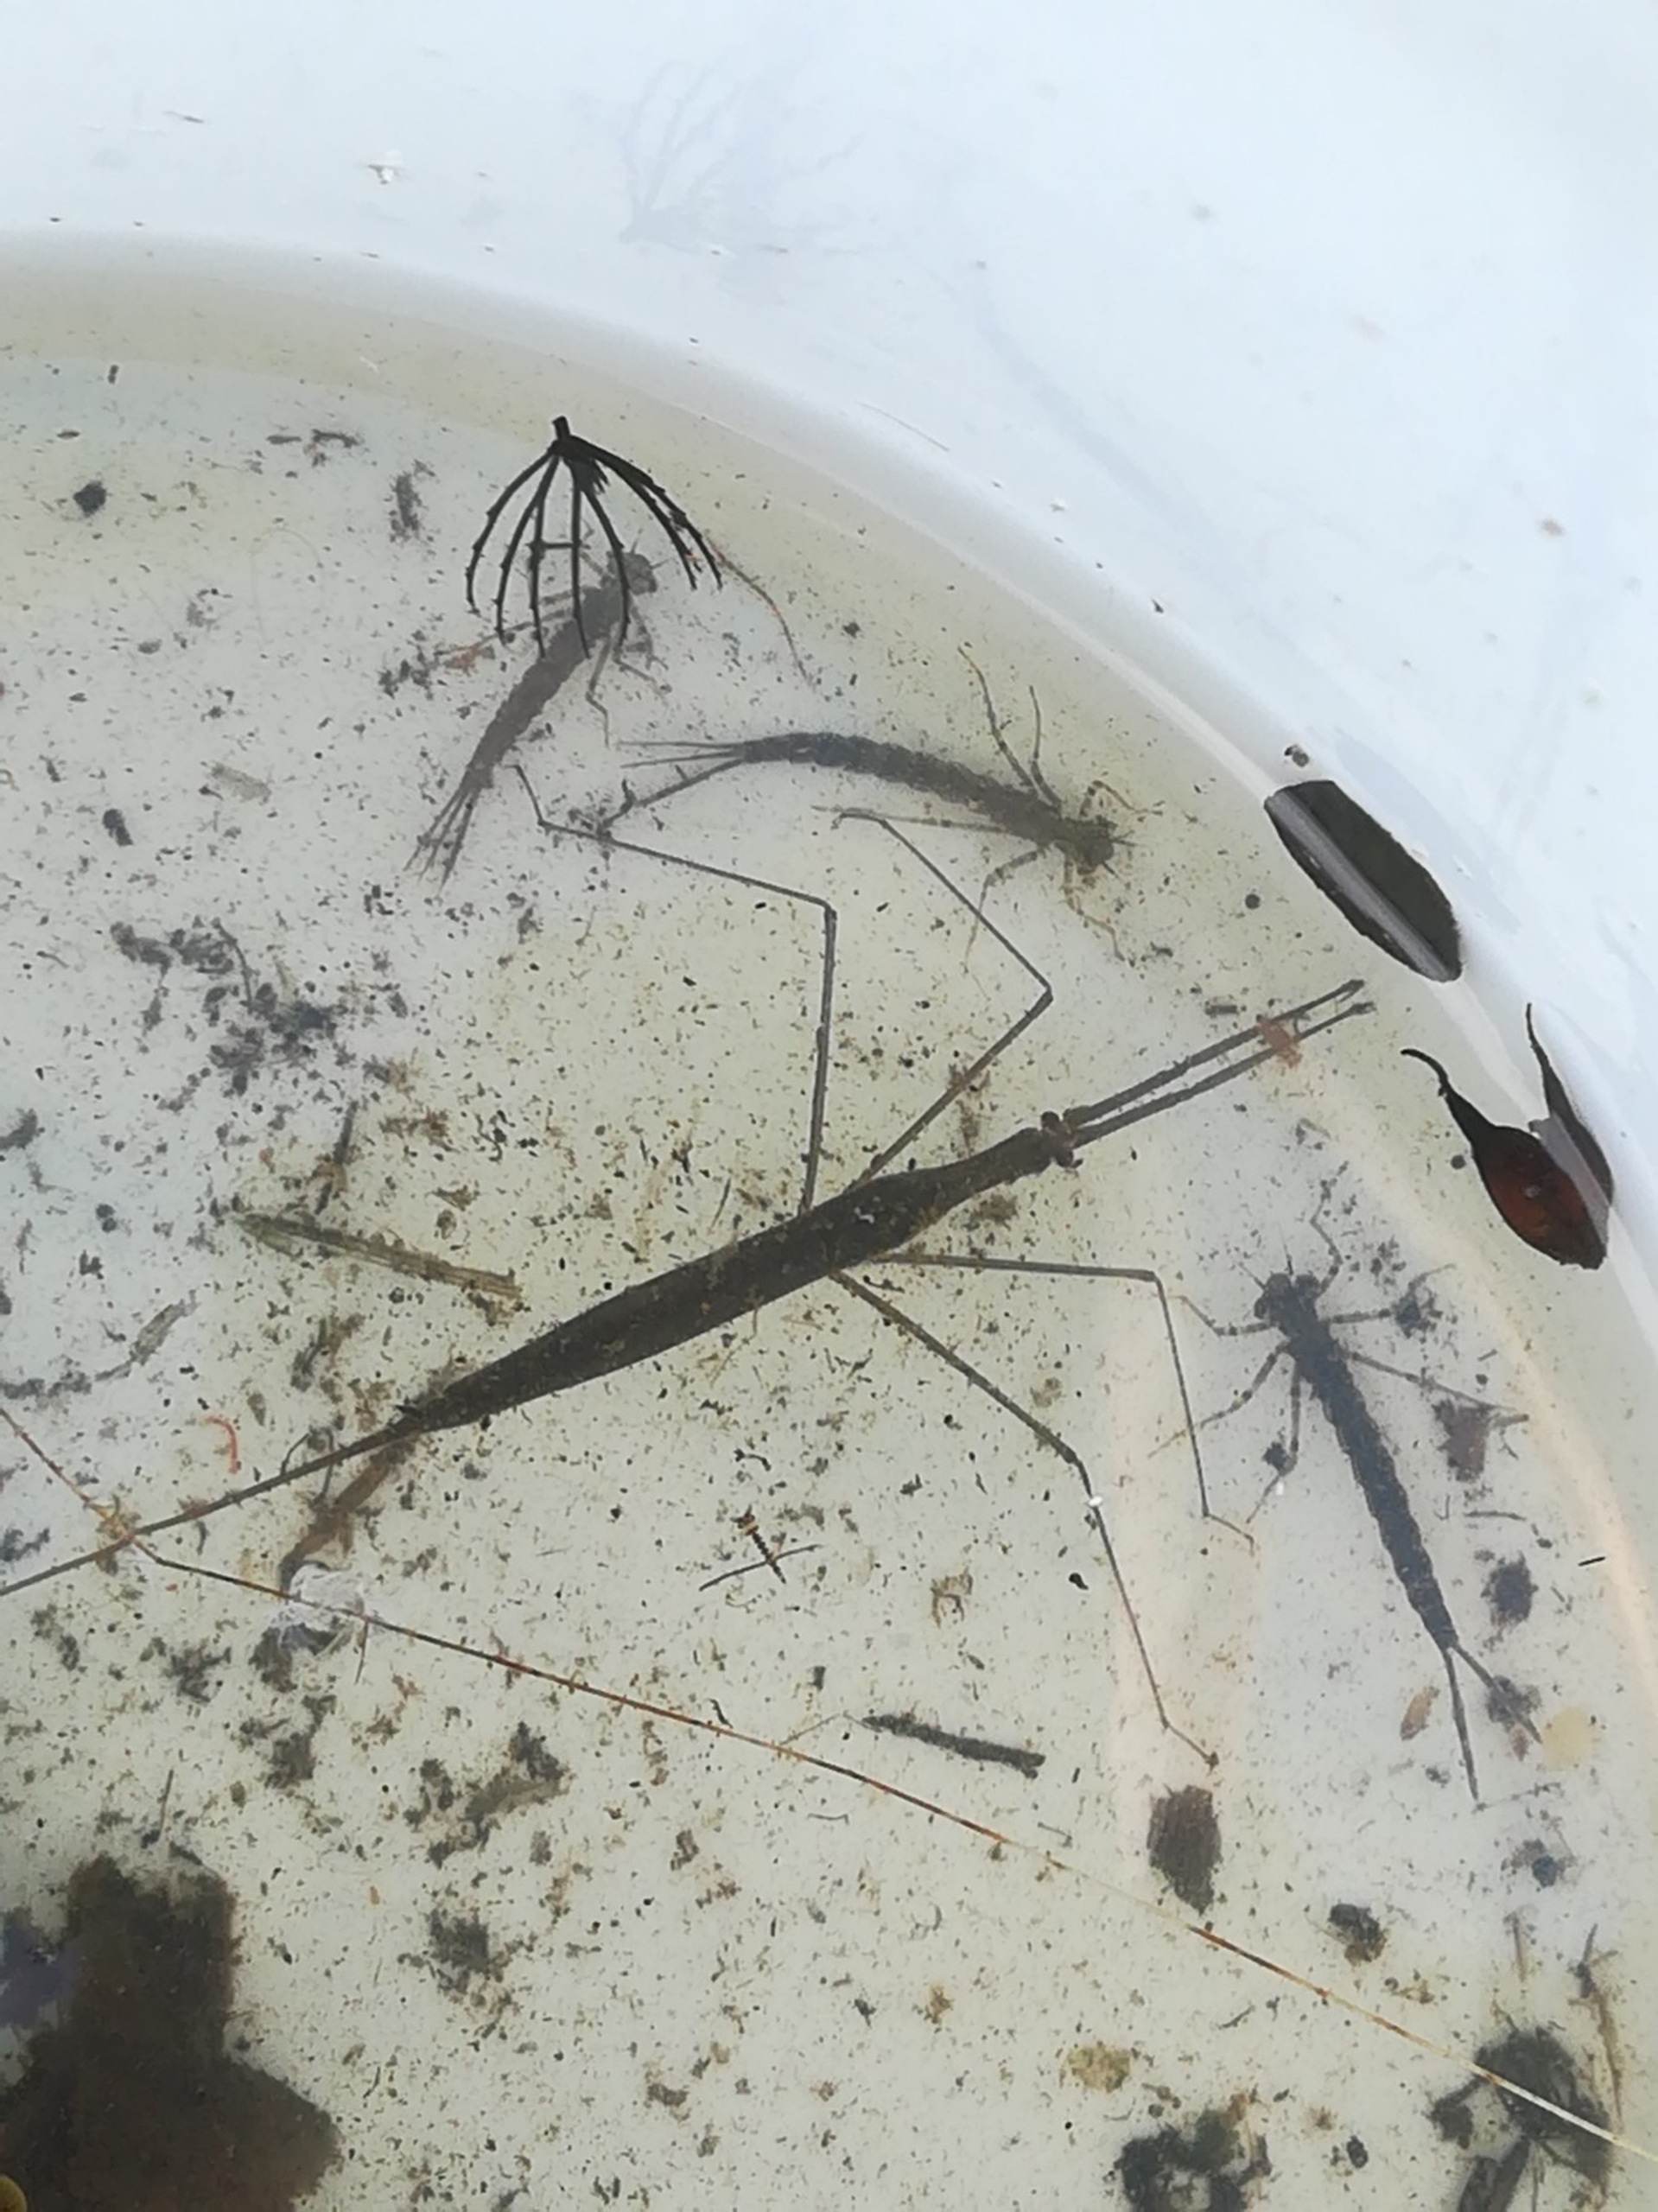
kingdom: Animalia
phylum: Arthropoda
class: Insecta
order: Hemiptera
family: Nepidae
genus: Ranatra
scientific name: Ranatra linearis
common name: Stavtæge
